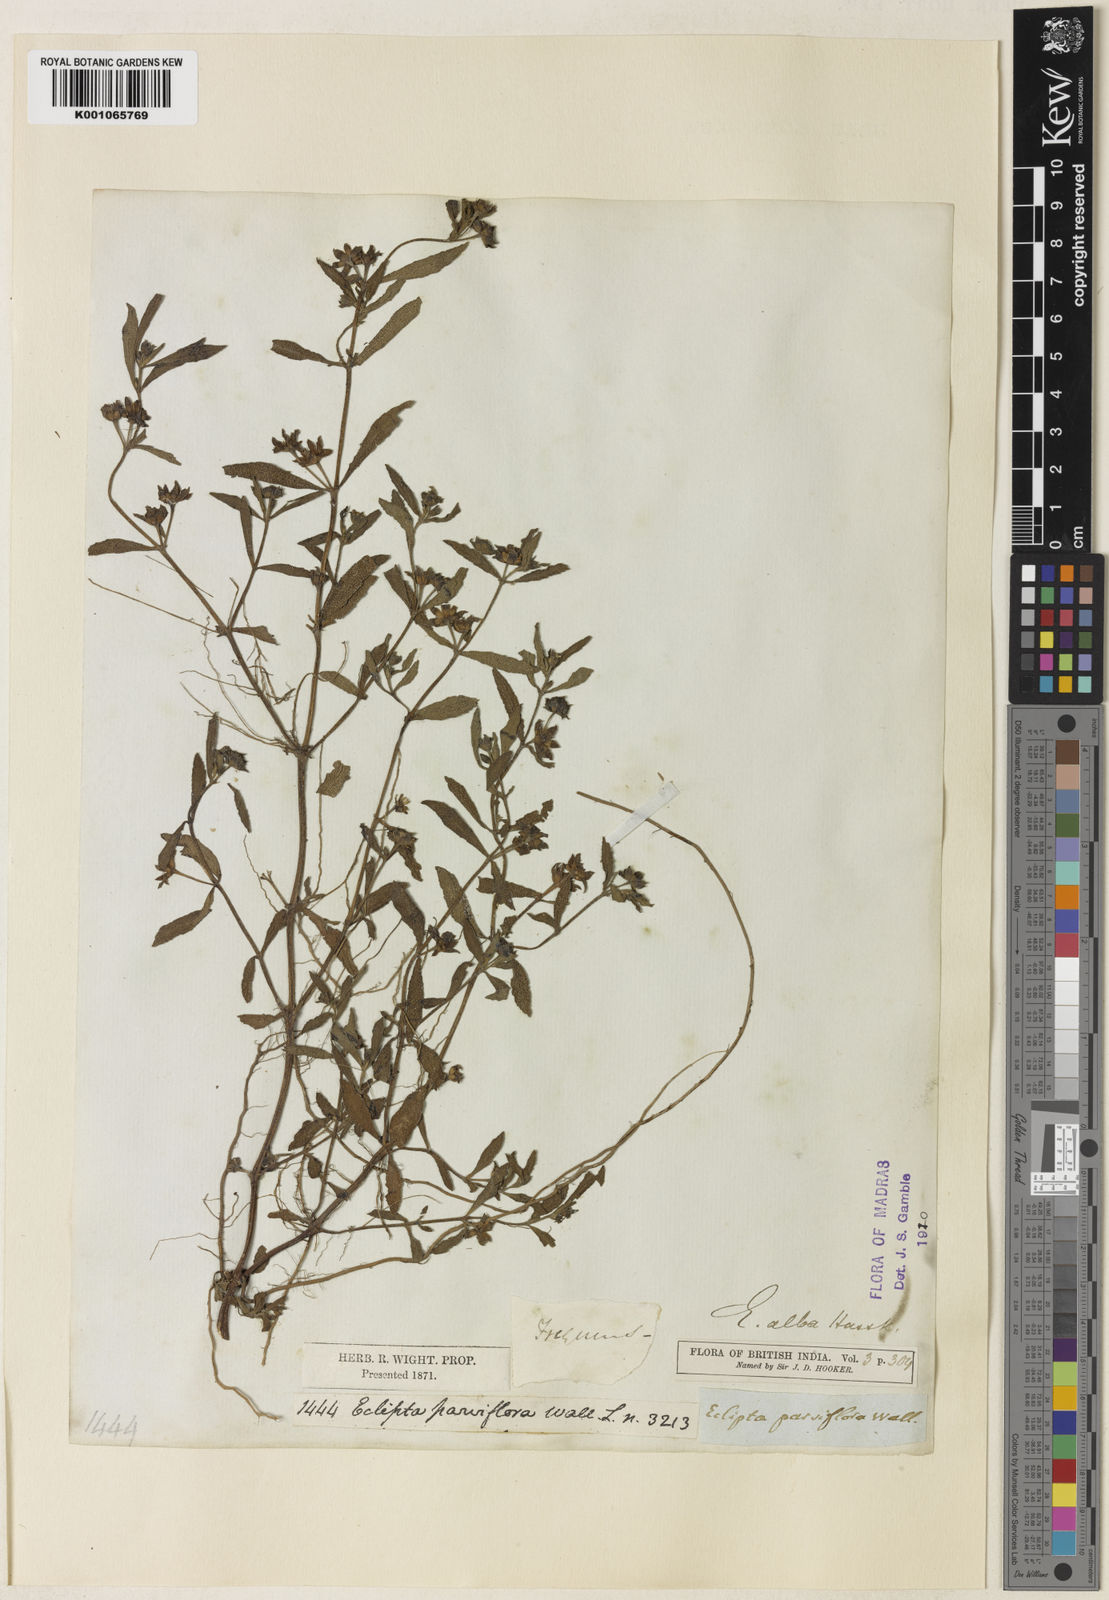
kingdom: Plantae
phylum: Tracheophyta
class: Magnoliopsida
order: Asterales
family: Asteraceae
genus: Eclipta
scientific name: Eclipta alba
